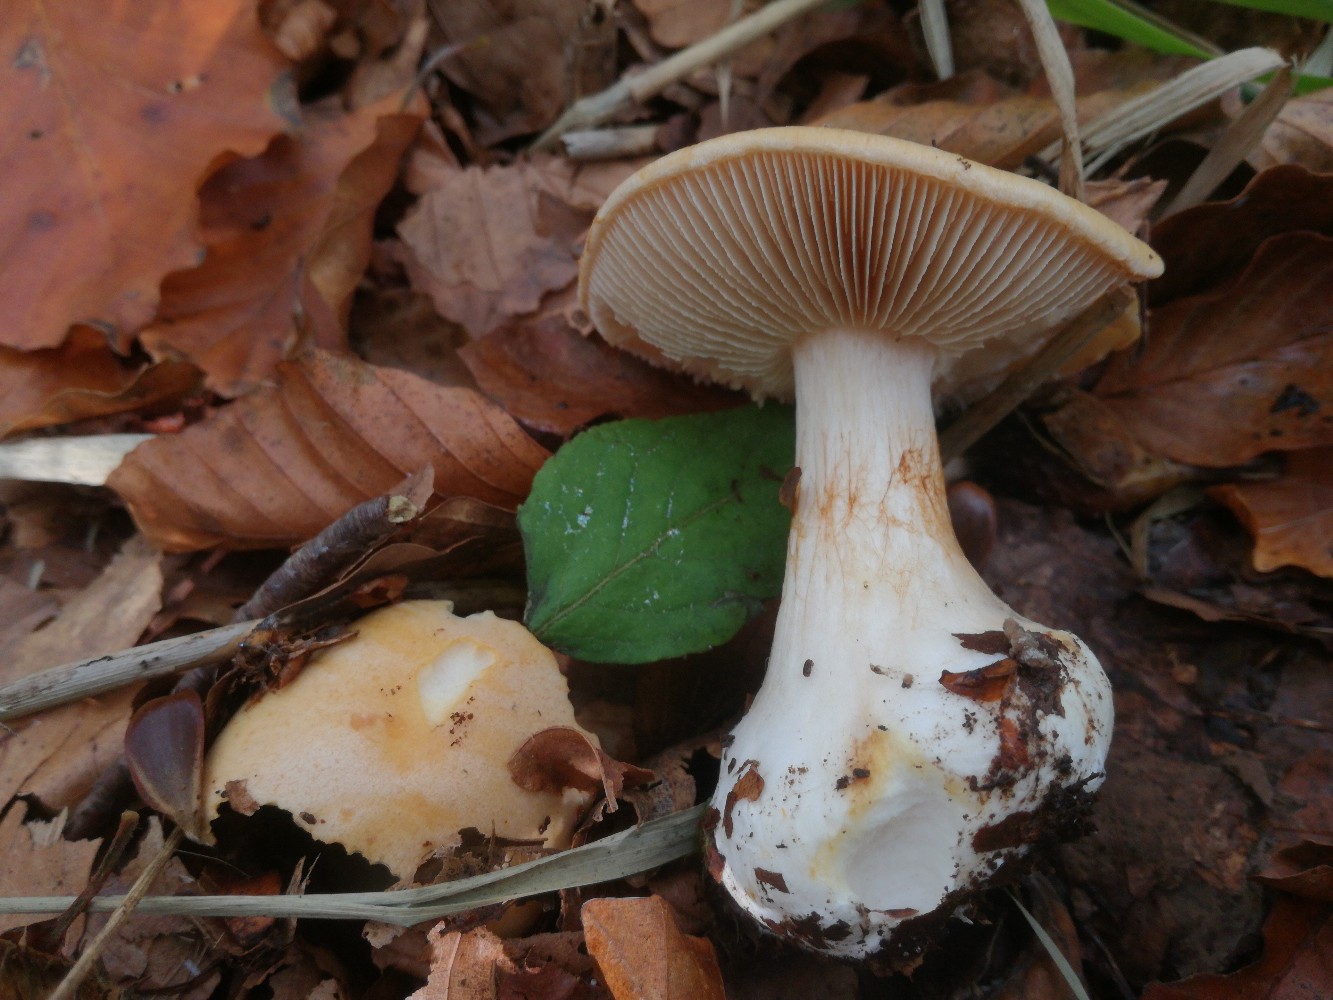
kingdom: Fungi
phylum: Basidiomycota
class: Agaricomycetes
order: Agaricales
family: Cortinariaceae
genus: Thaxterogaster
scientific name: Thaxterogaster talus
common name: knogle-slørhat
